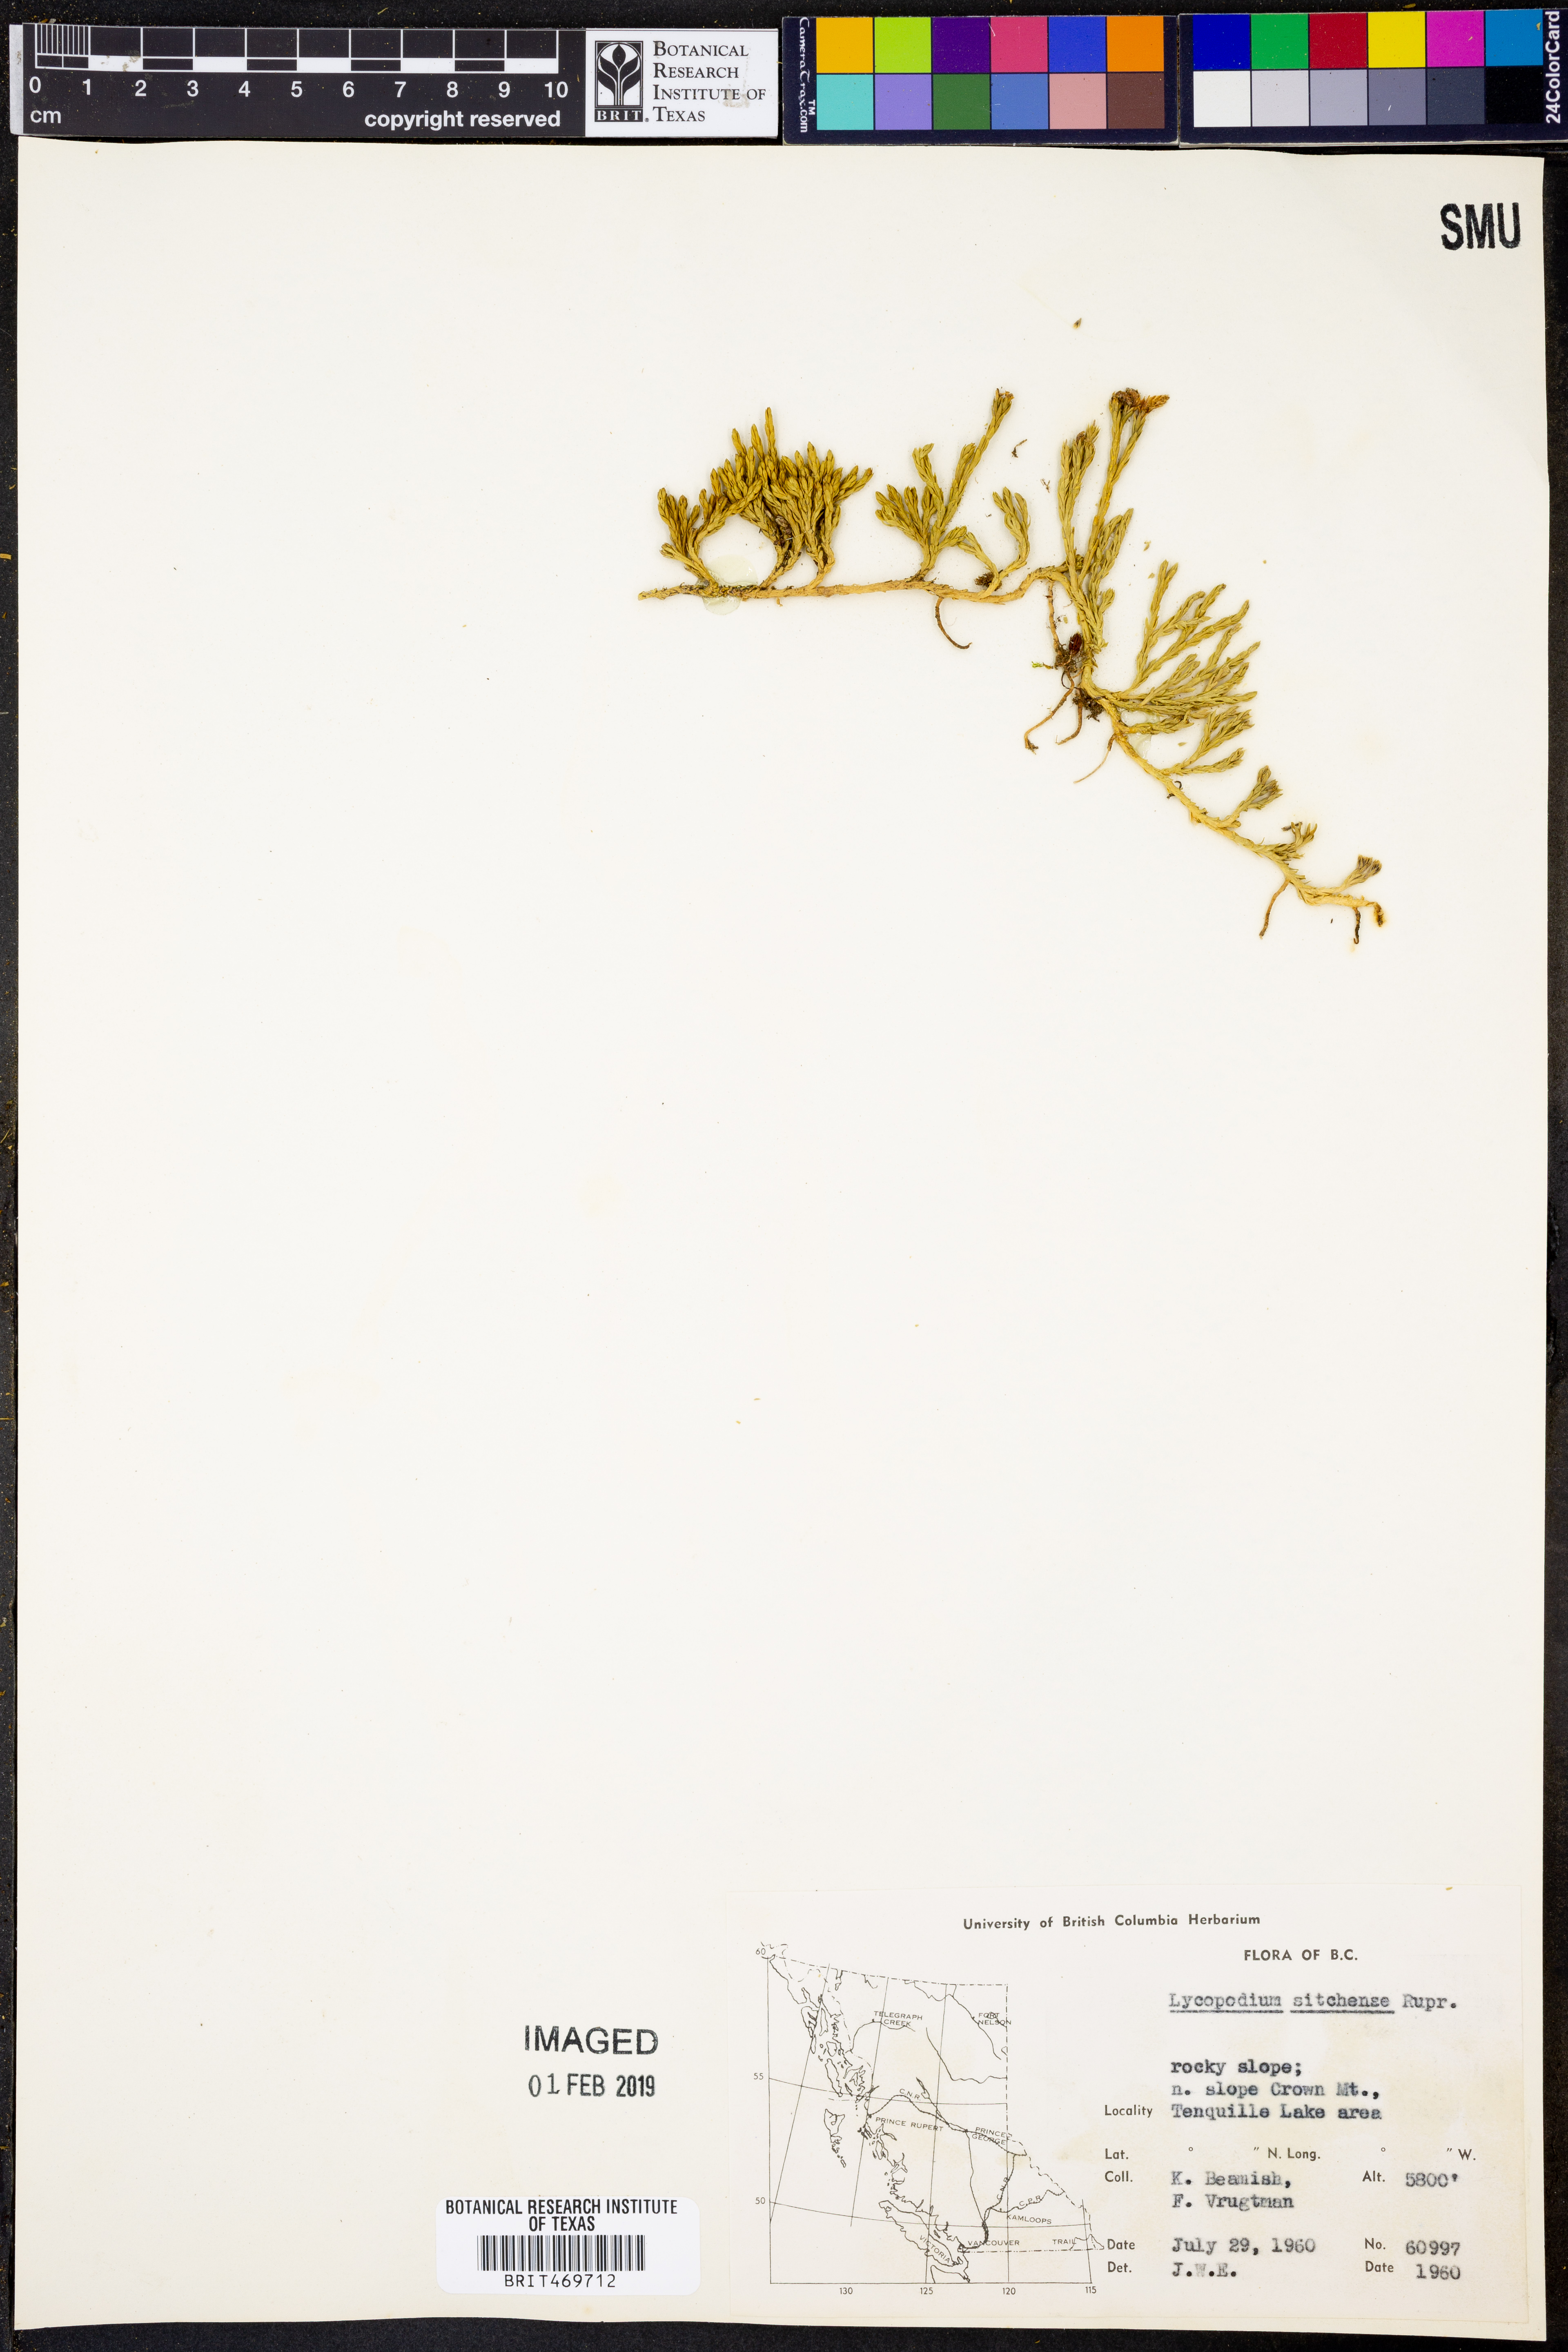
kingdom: Plantae
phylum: Tracheophyta
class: Lycopodiopsida
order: Lycopodiales
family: Lycopodiaceae
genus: Diphasiastrum
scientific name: Diphasiastrum sitchense
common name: Alaska clubmoss
